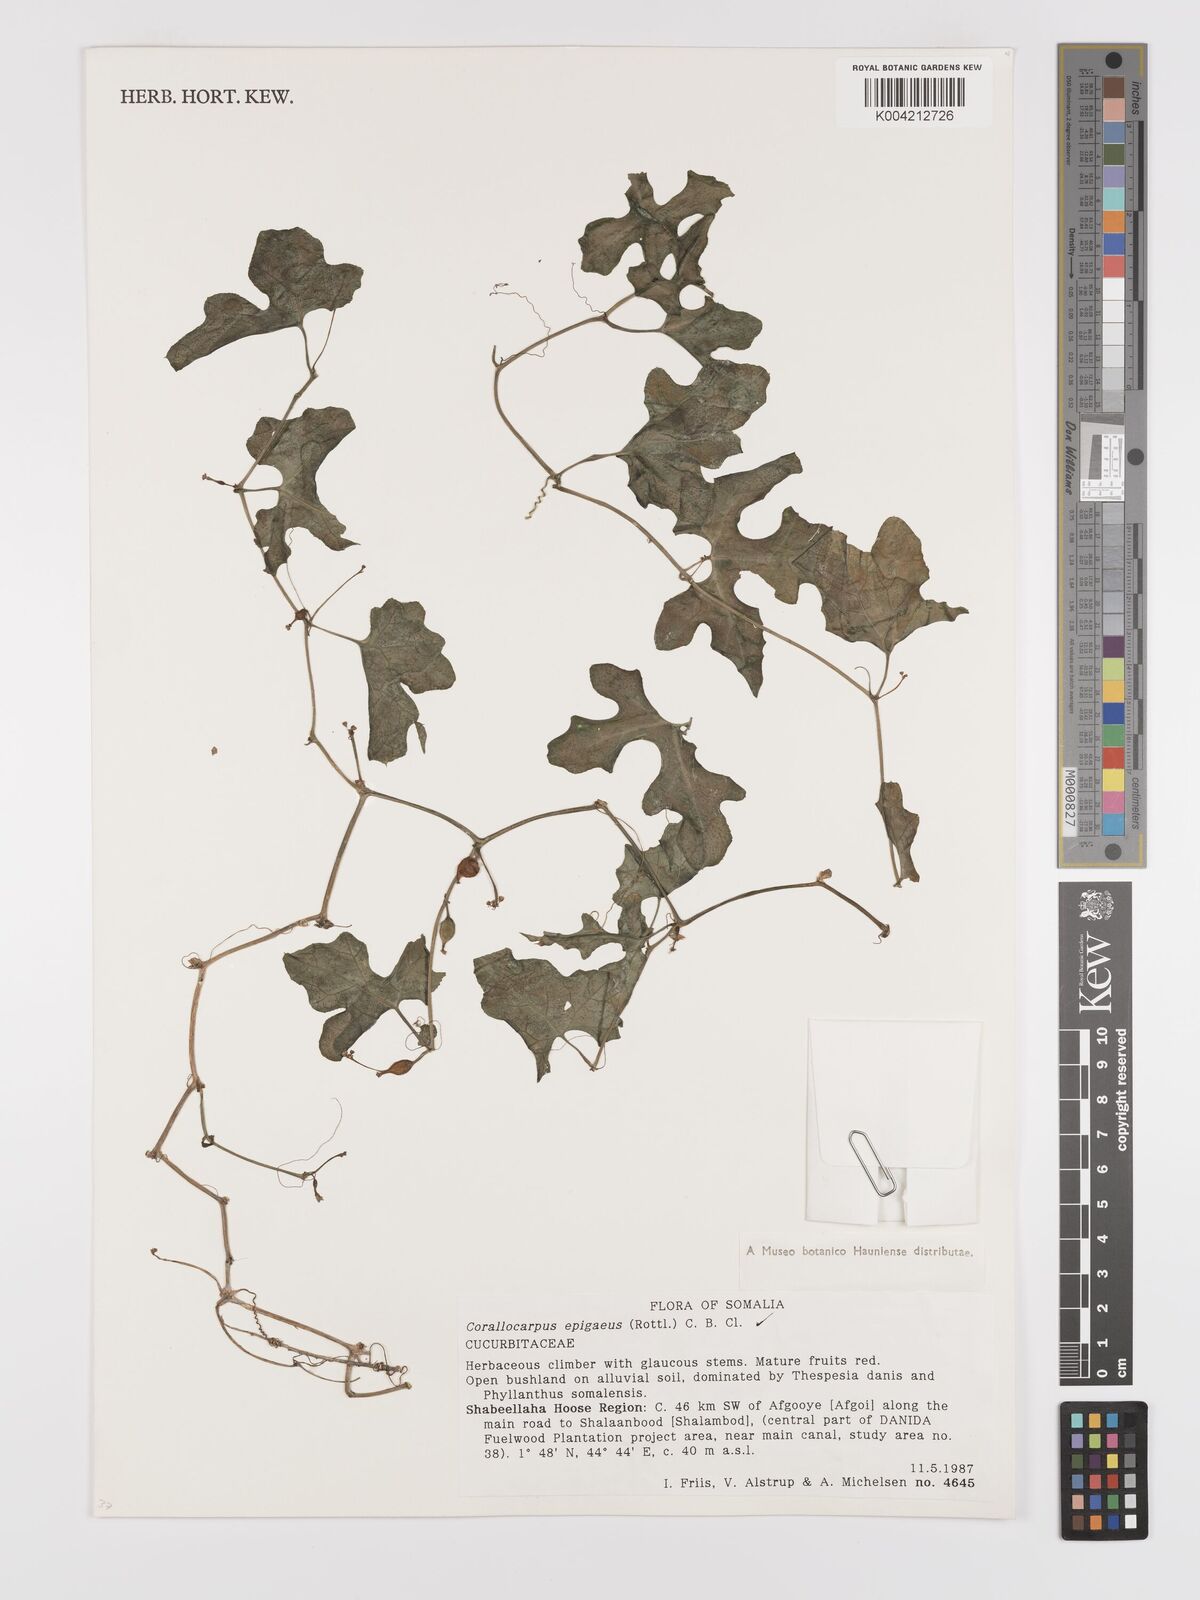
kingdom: Plantae
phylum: Tracheophyta
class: Magnoliopsida
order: Cucurbitales
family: Cucurbitaceae
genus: Corallocarpus
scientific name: Corallocarpus epigaeus
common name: Indian bryonia
